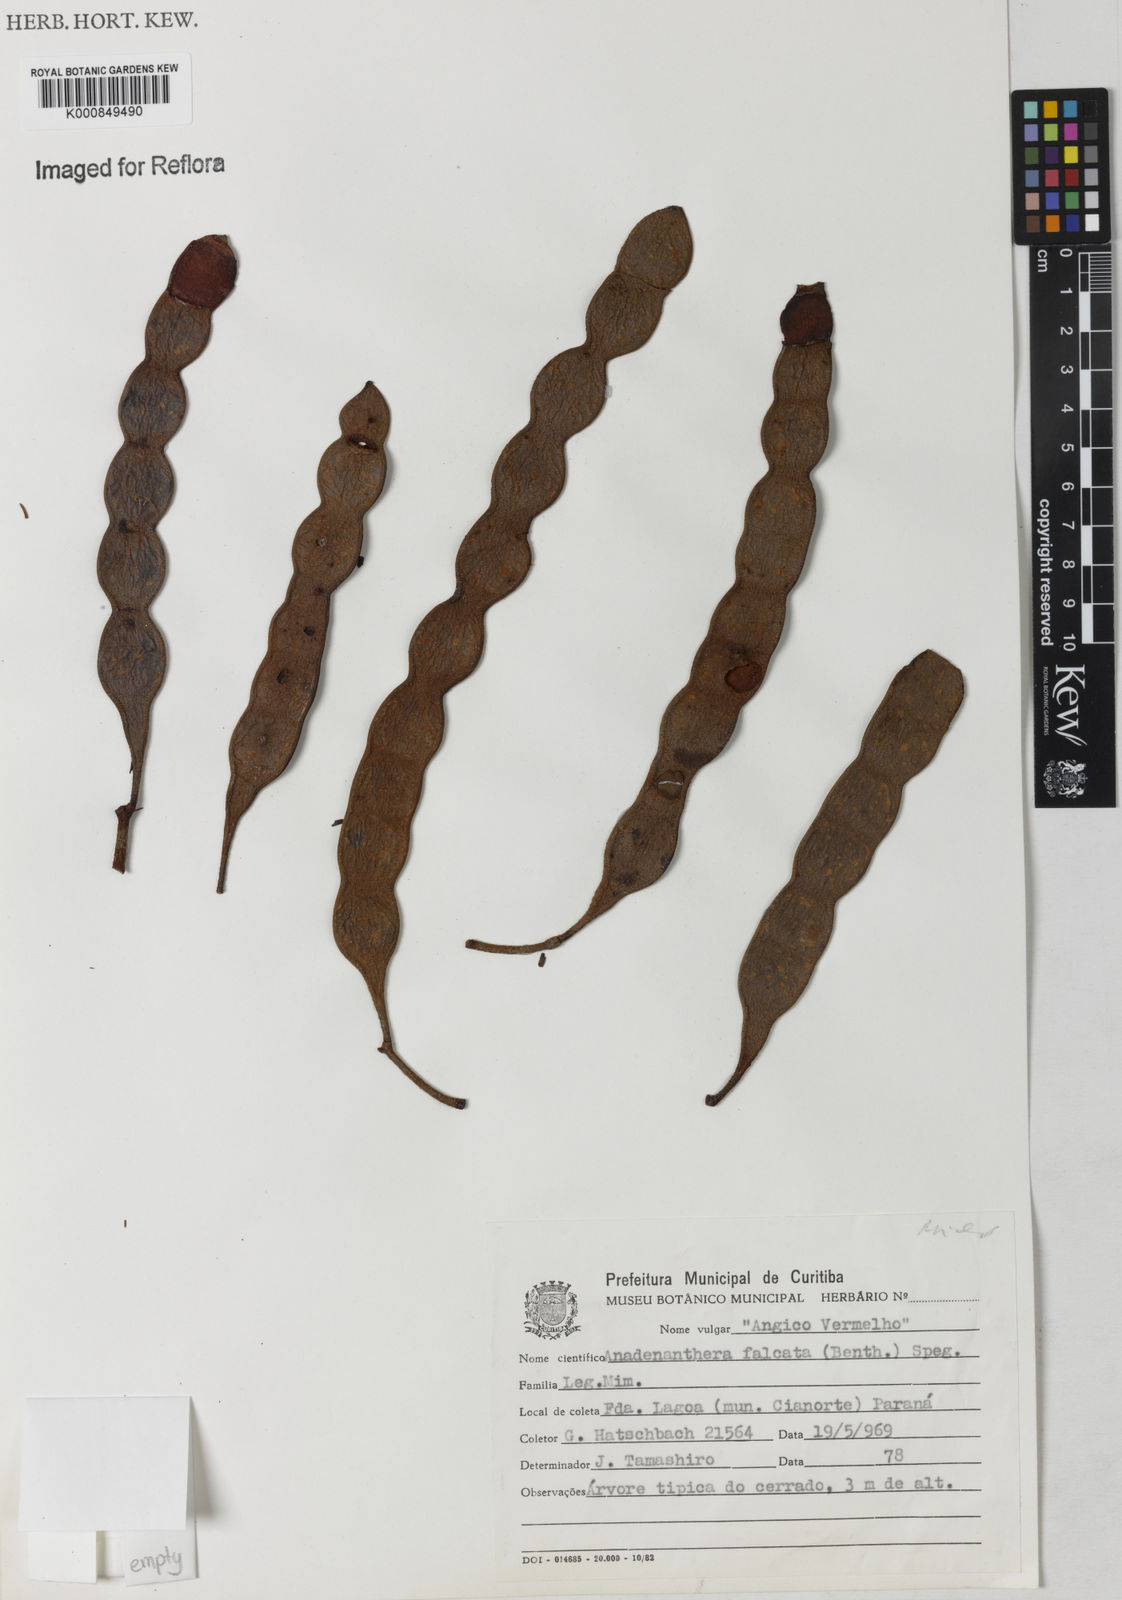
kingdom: Plantae
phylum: Tracheophyta
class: Magnoliopsida
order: Fabales
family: Fabaceae
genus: Anadenanthera
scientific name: Anadenanthera peregrina
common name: Cohoba
